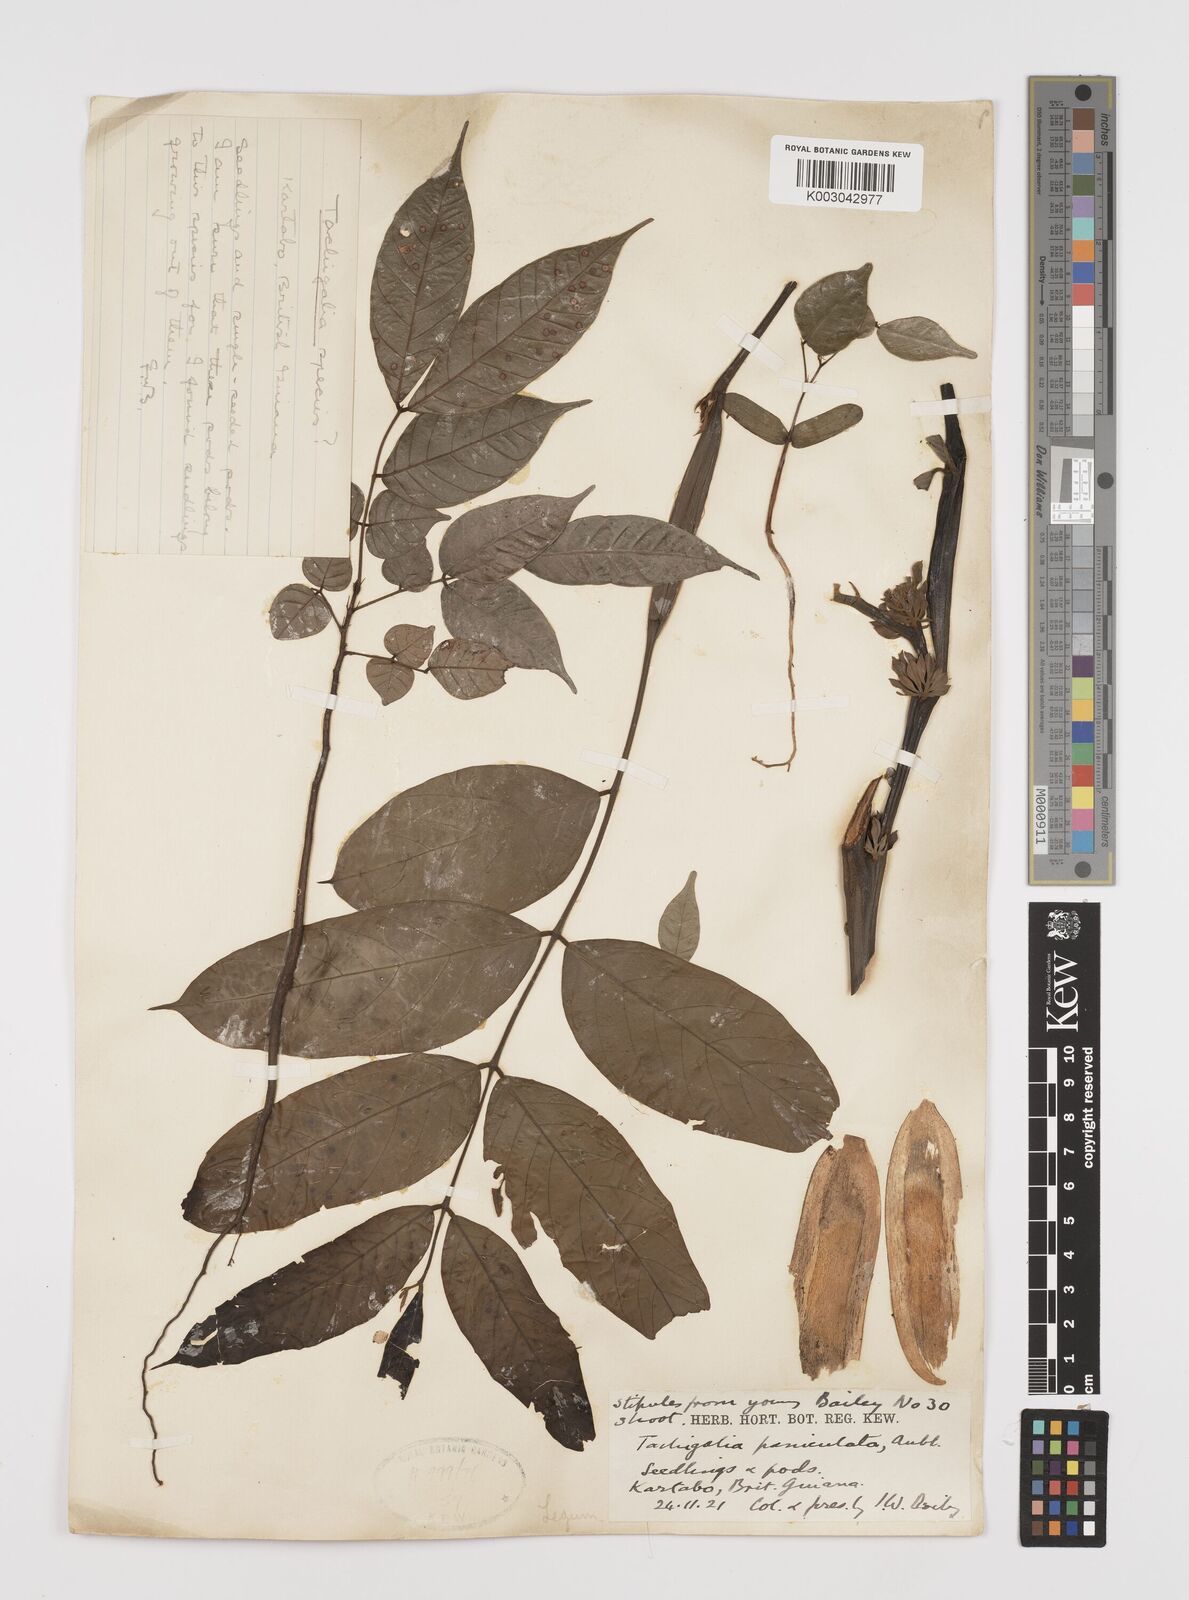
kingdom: Plantae
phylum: Tracheophyta
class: Magnoliopsida
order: Fabales
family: Fabaceae
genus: Tachigali
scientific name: Tachigali paniculata
